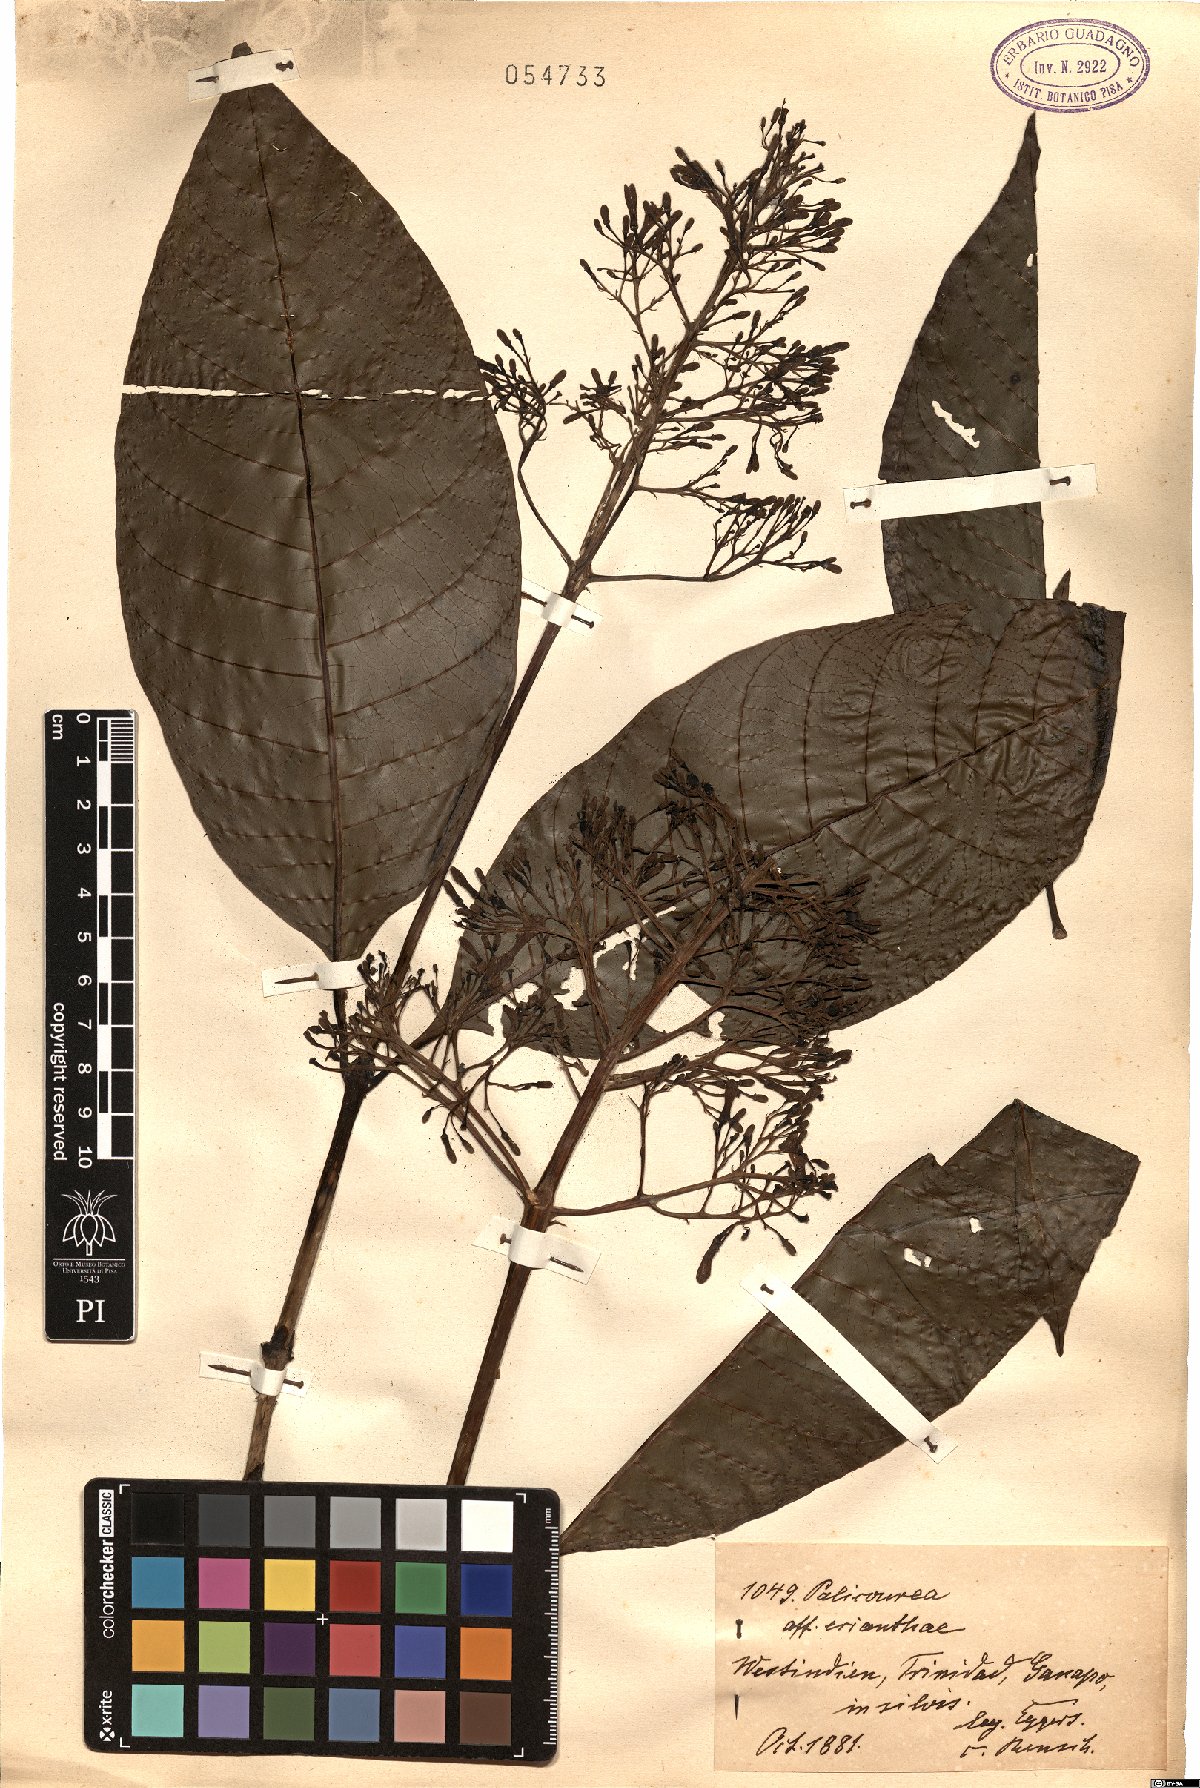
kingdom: Plantae
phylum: Tracheophyta
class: Magnoliopsida
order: Gentianales
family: Rubiaceae
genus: Palicourea
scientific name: Palicourea eriantha
